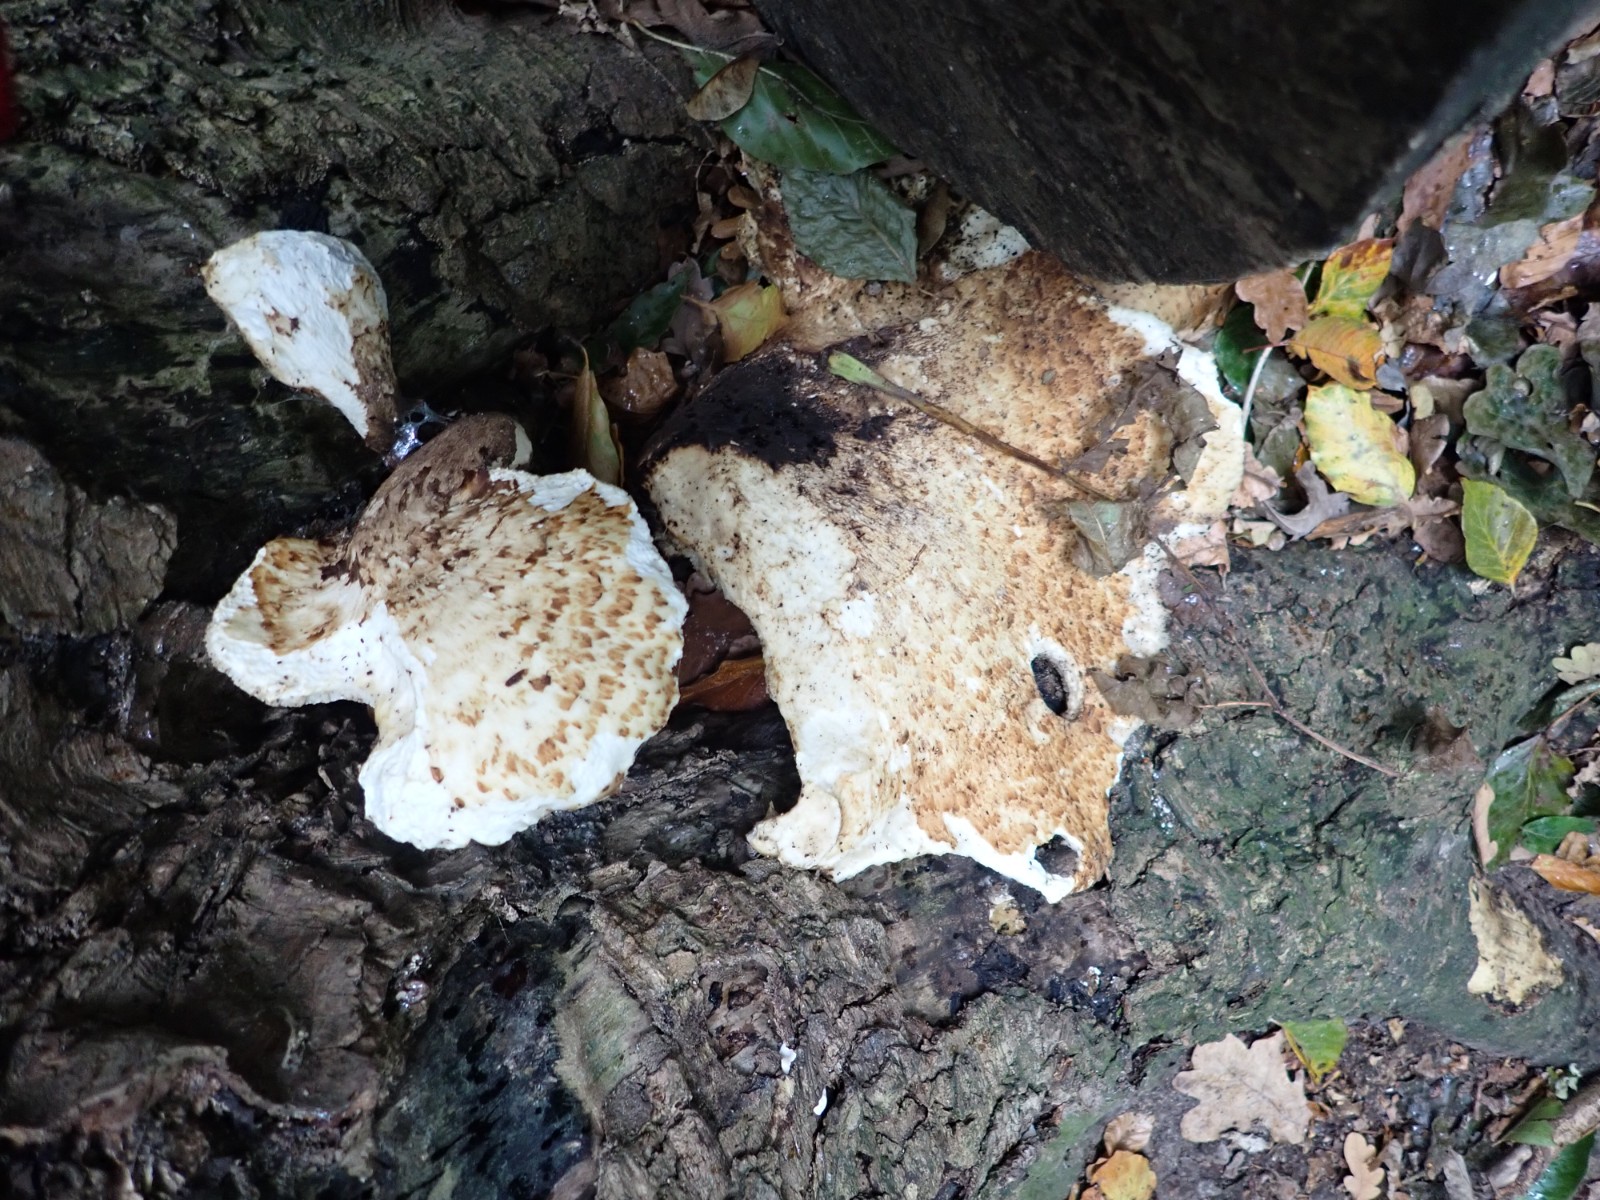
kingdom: Fungi
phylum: Basidiomycota
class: Agaricomycetes
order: Polyporales
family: Polyporaceae
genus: Cerioporus
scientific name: Cerioporus squamosus
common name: skællet stilkporesvamp
